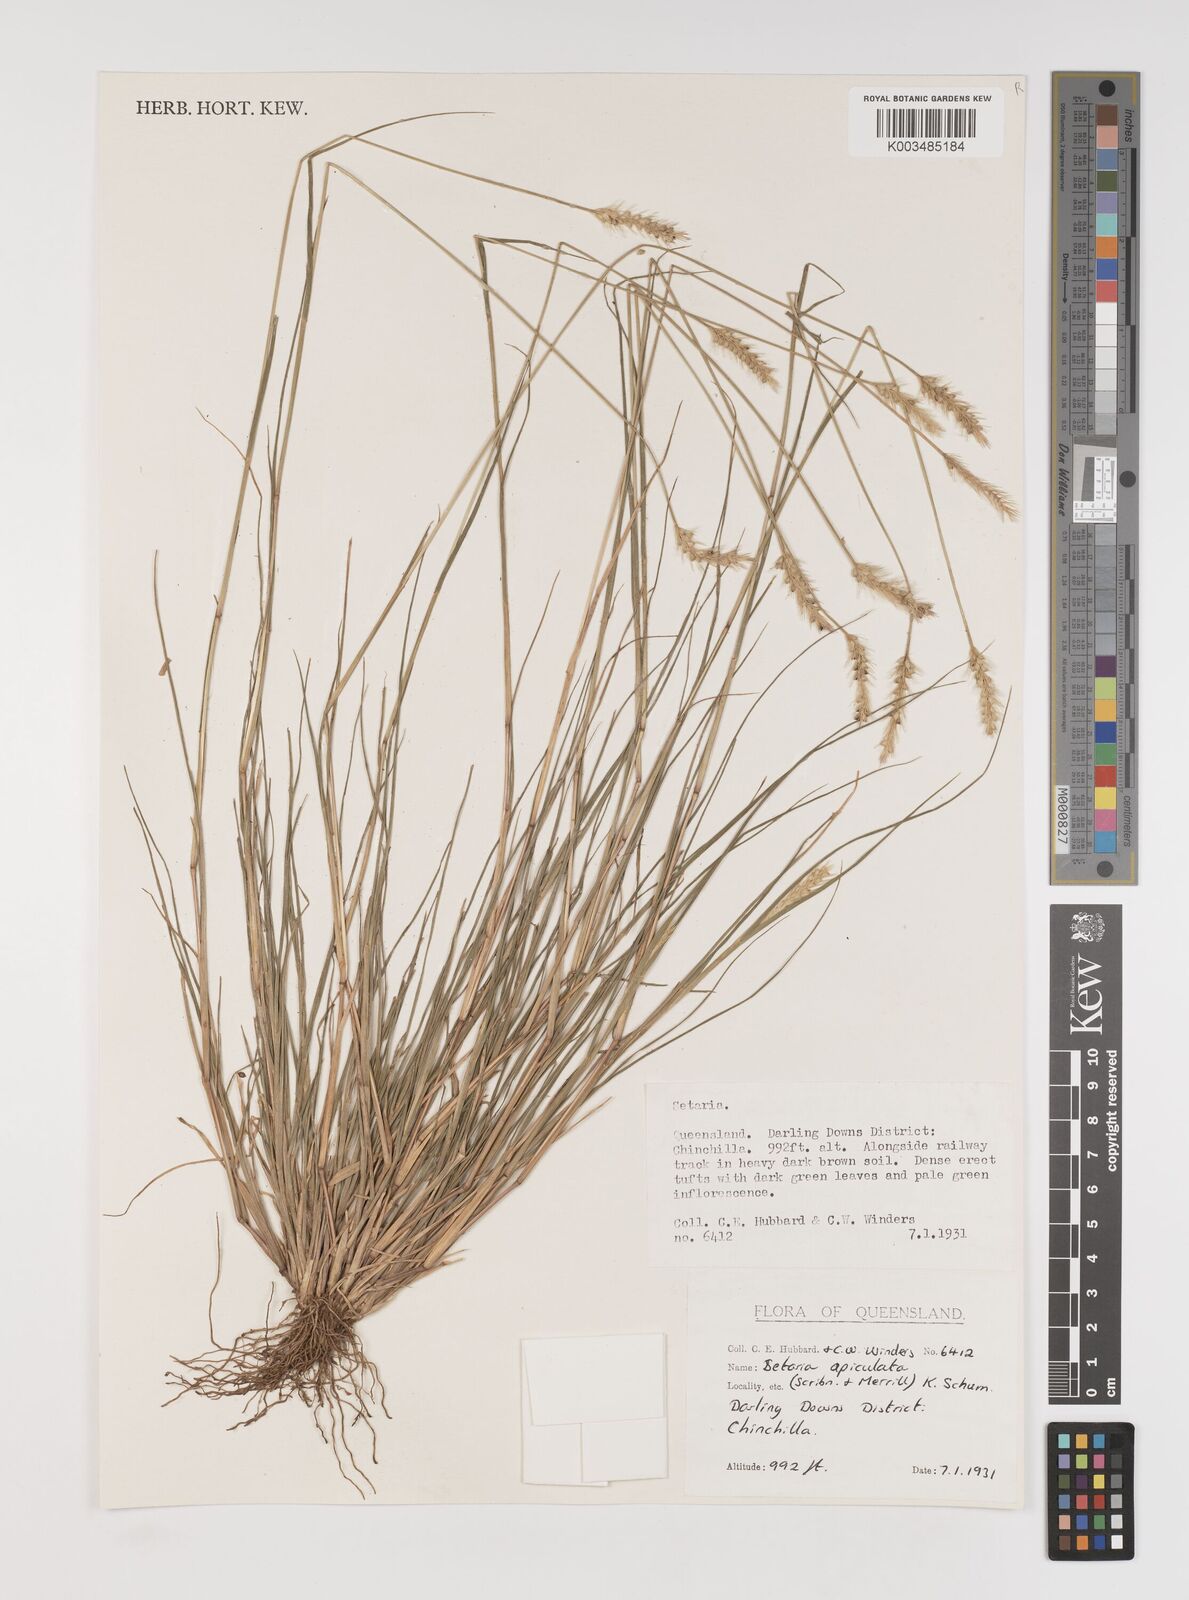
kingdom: Plantae
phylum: Tracheophyta
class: Liliopsida
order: Poales
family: Poaceae
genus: Setaria
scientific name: Setaria apiculata
